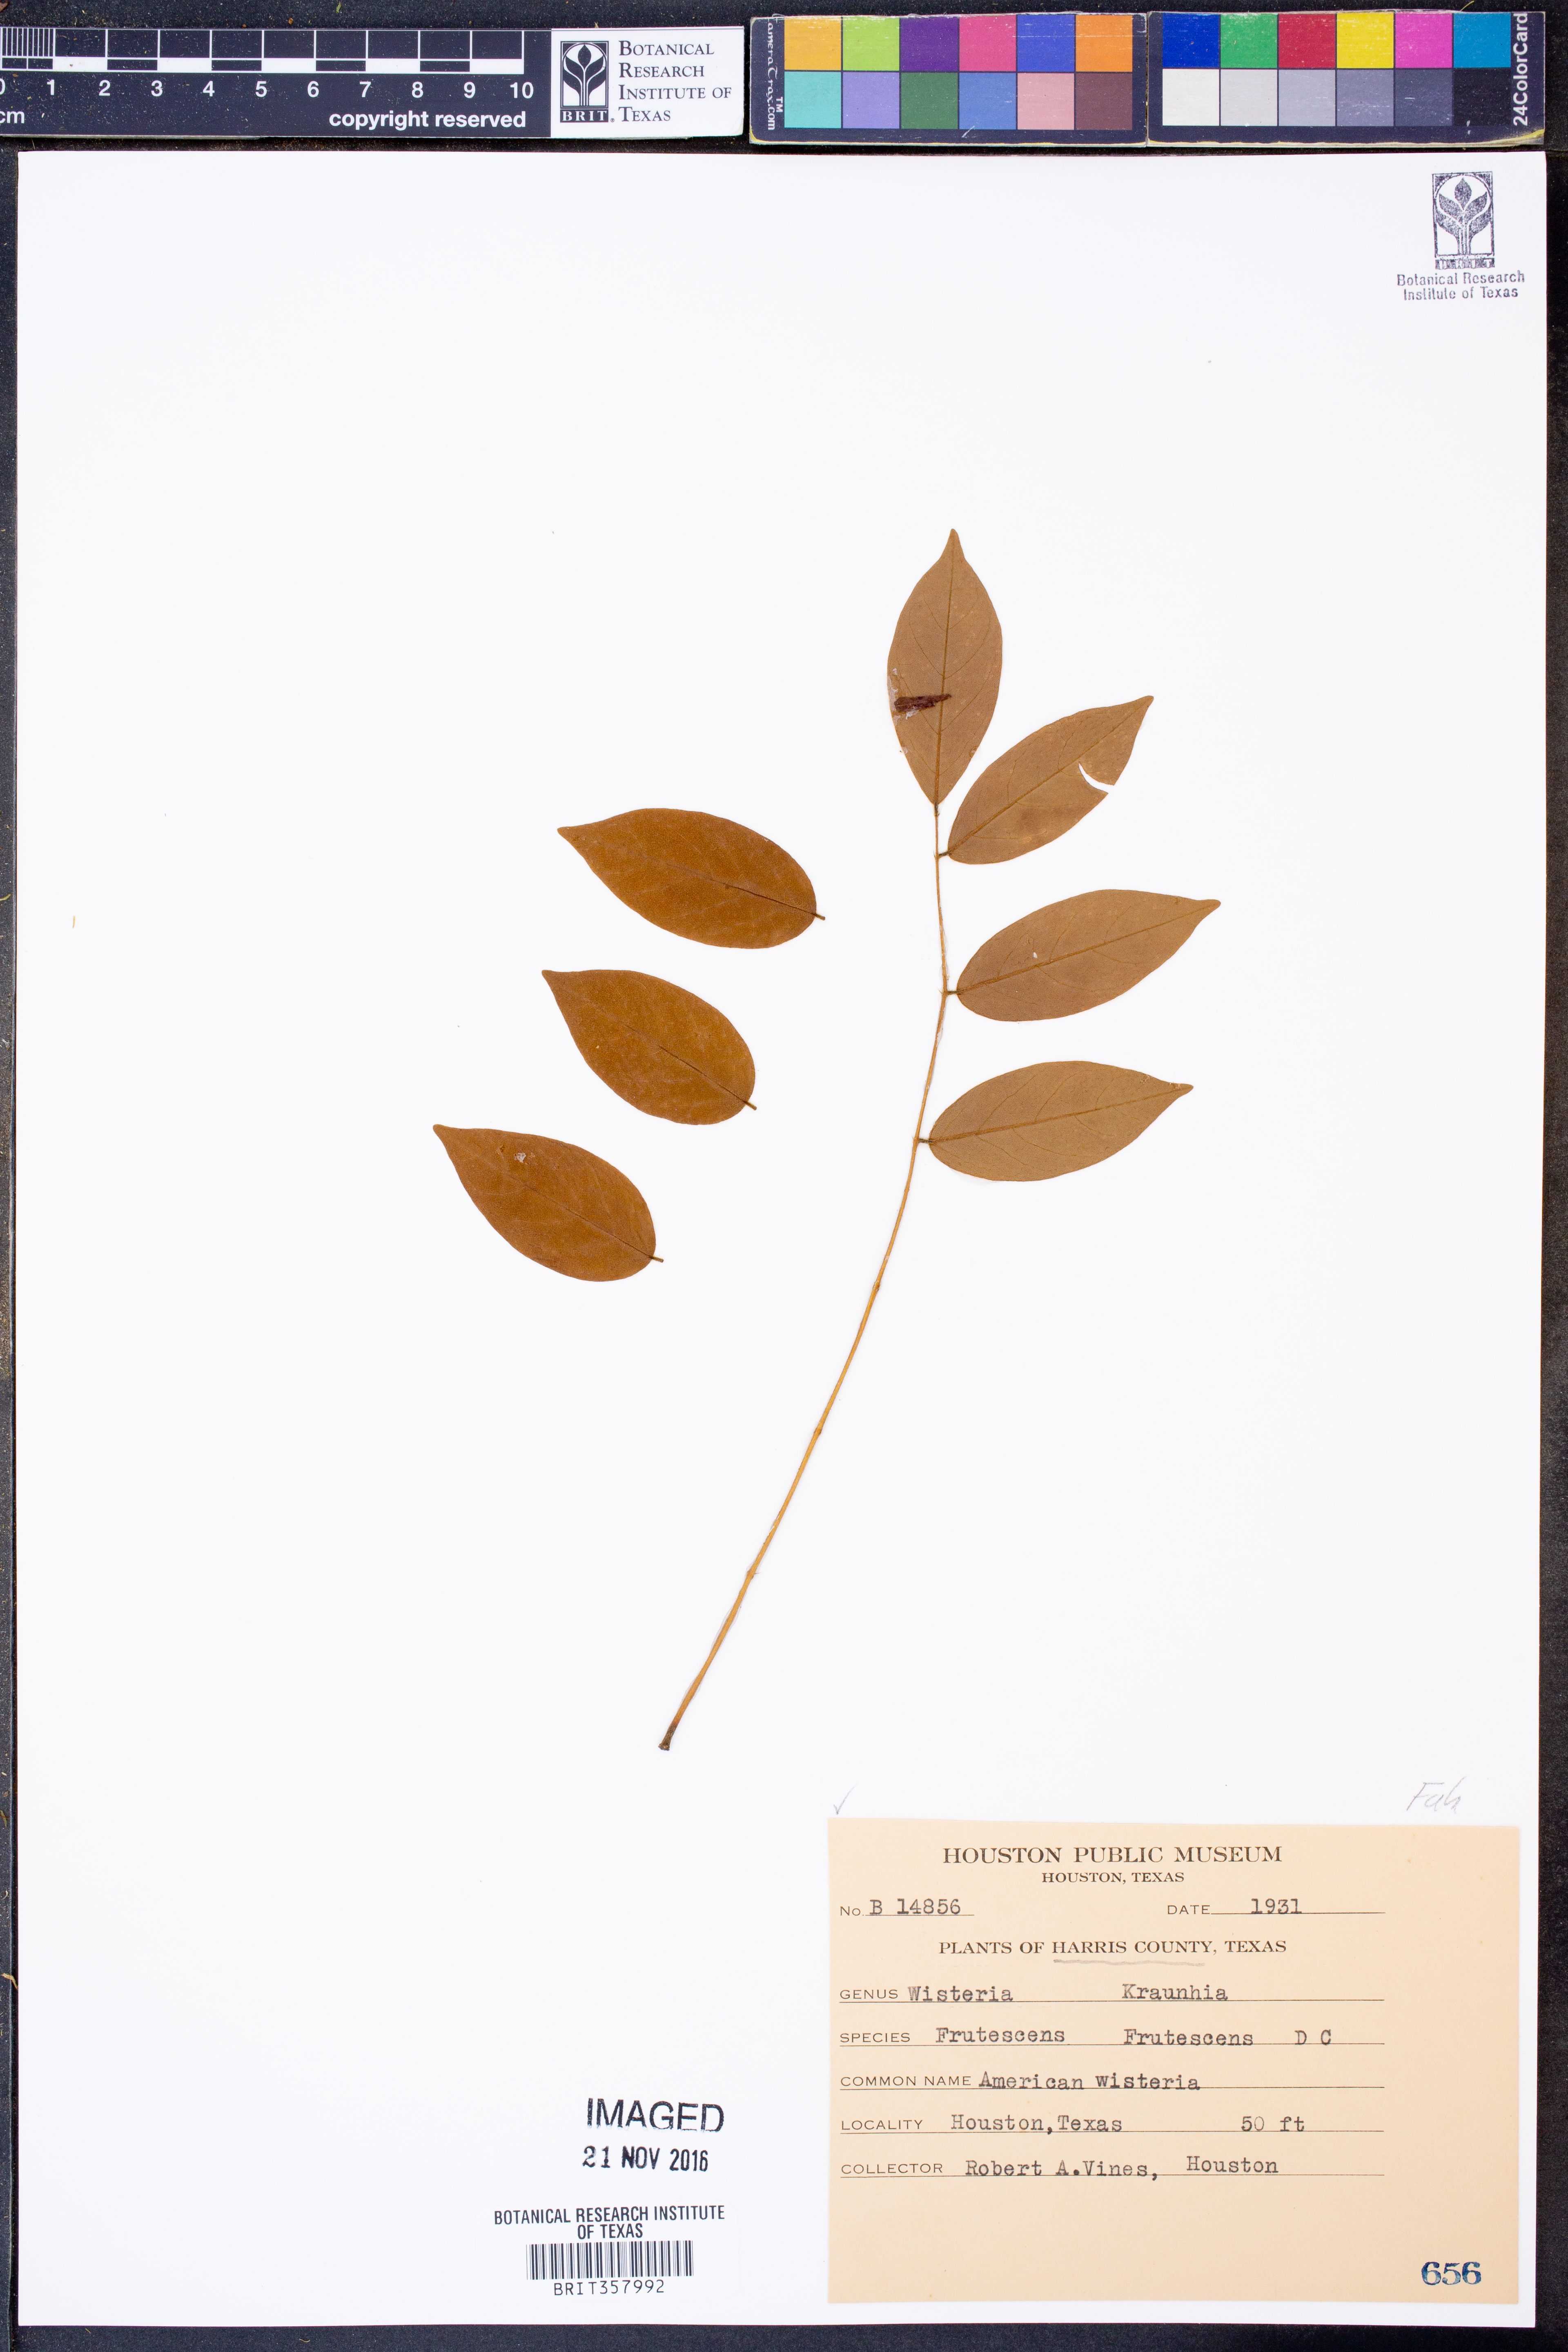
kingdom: Plantae
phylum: Tracheophyta
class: Magnoliopsida
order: Fabales
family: Fabaceae
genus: Wisteria
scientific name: Wisteria frutescens
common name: American wisteria
